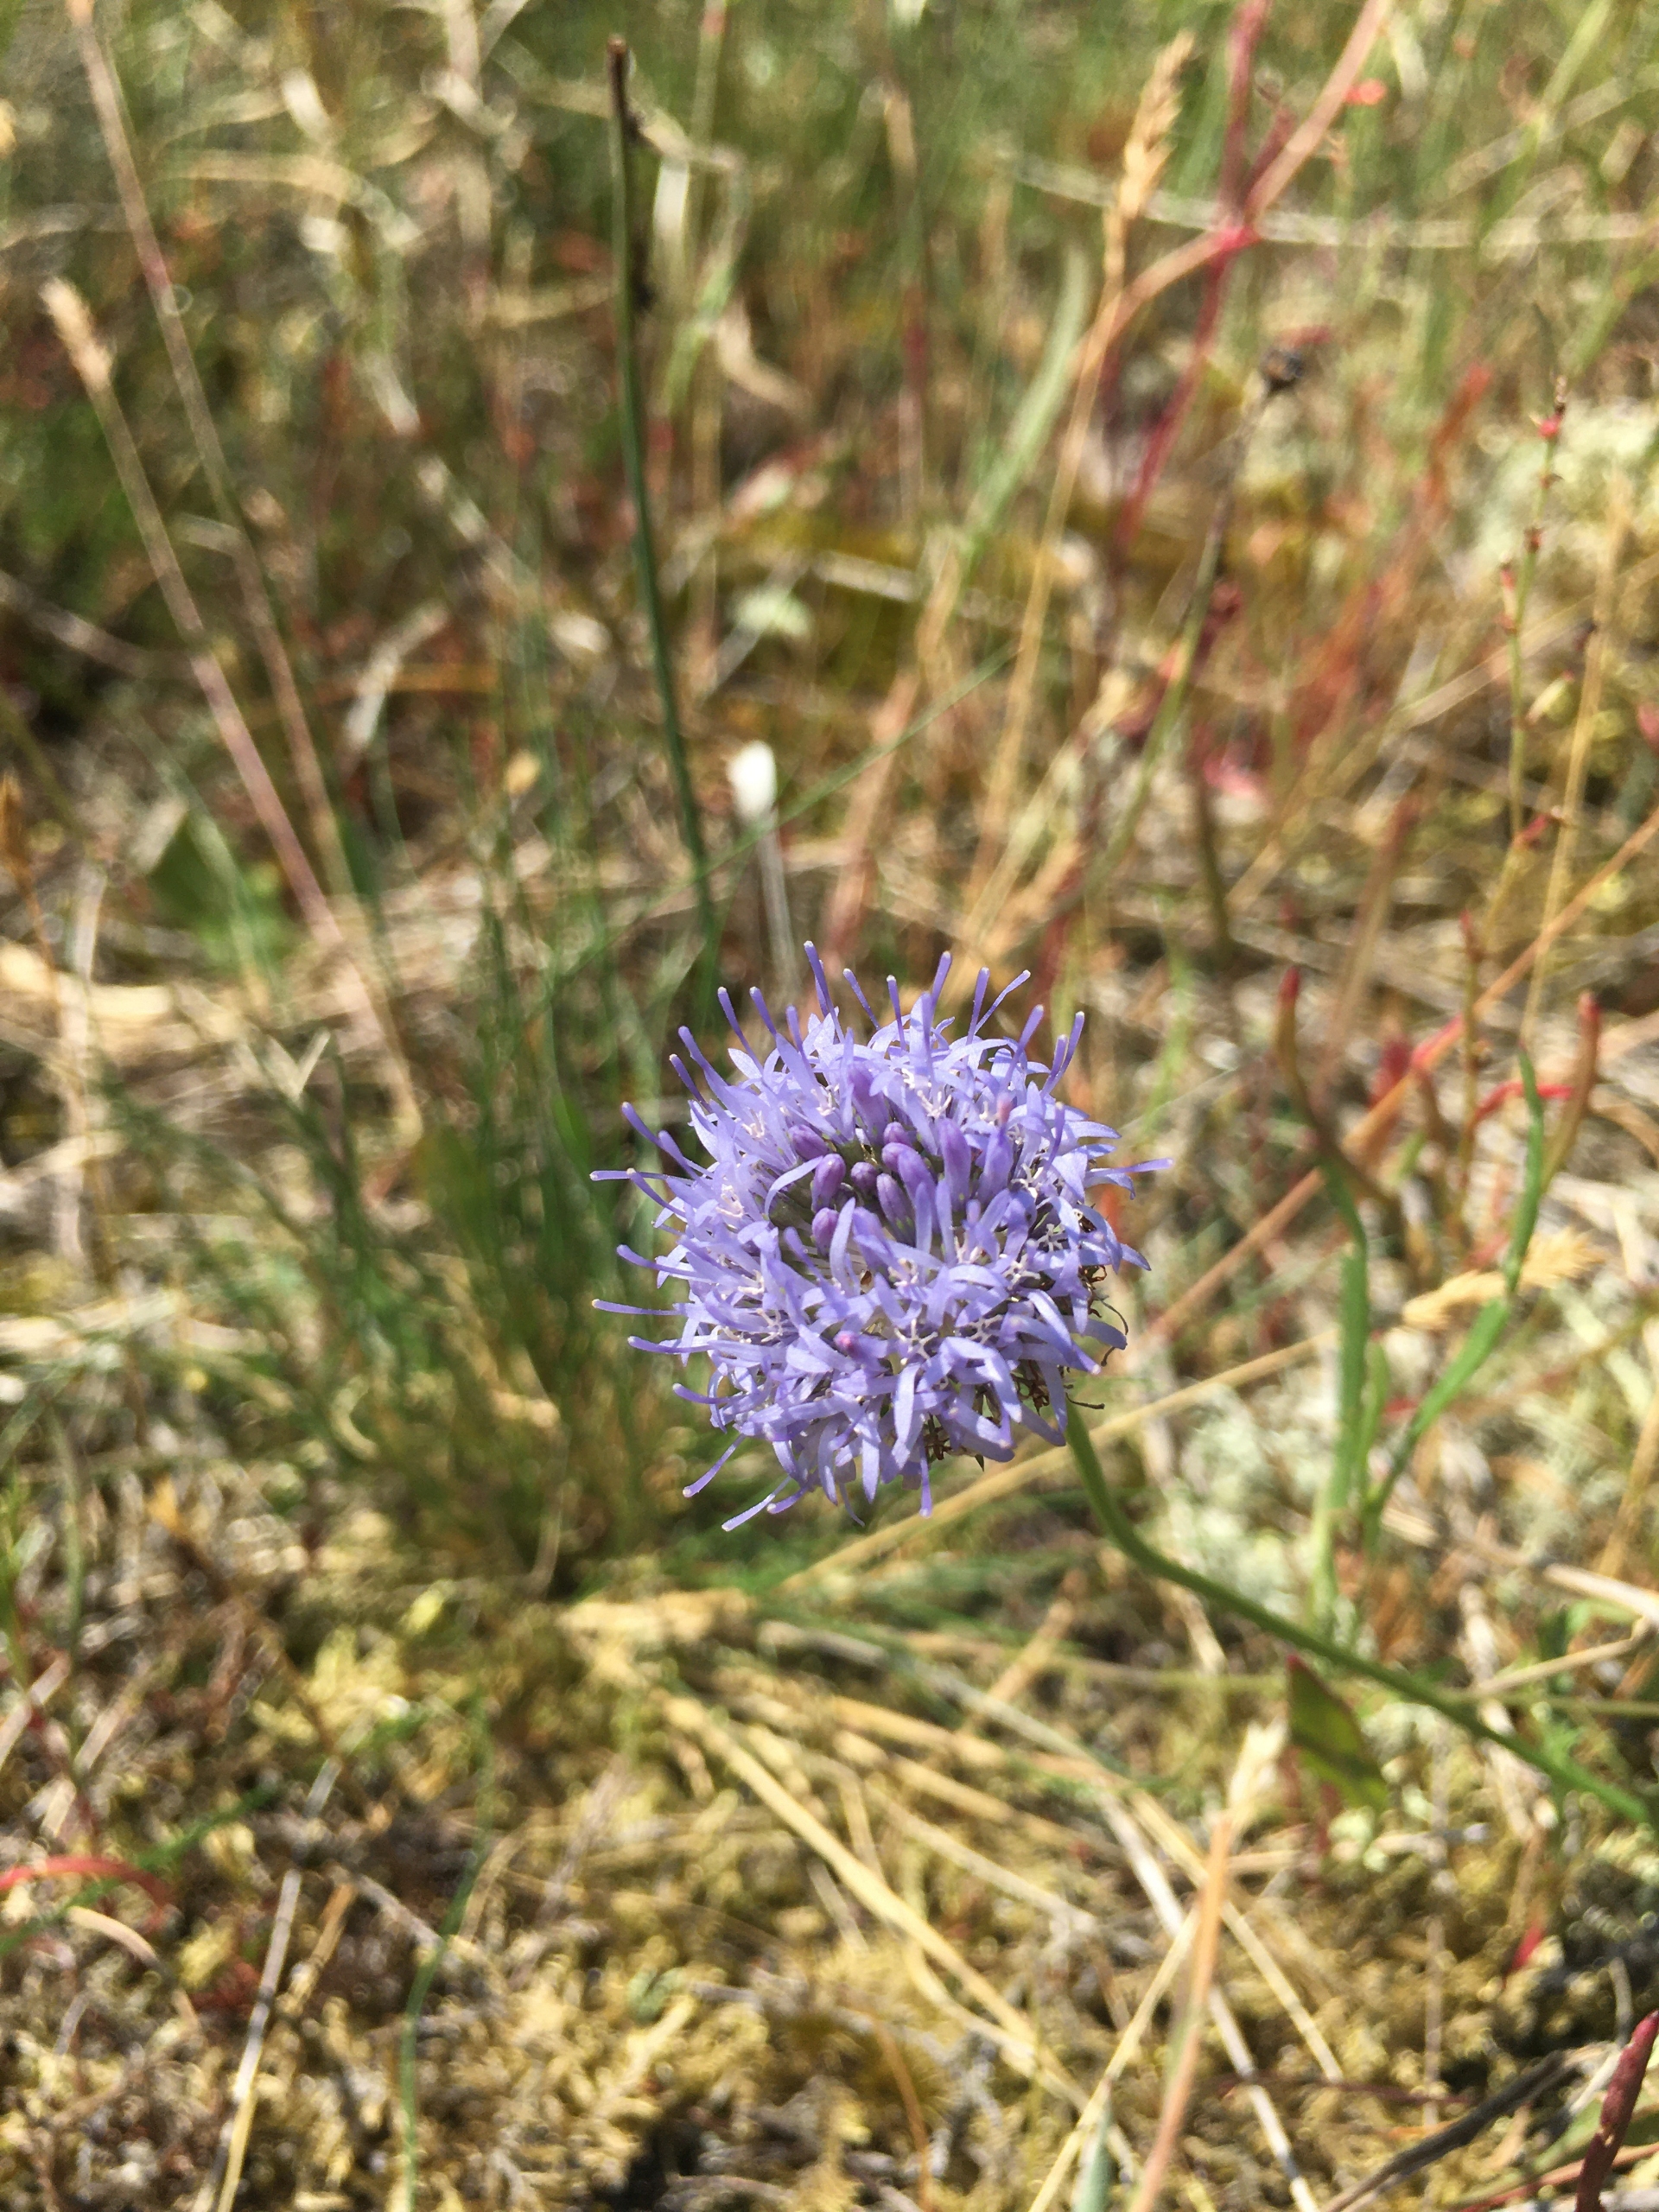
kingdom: Plantae
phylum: Tracheophyta
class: Magnoliopsida
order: Asterales
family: Campanulaceae
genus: Jasione
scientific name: Jasione montana
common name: Blåmunke
